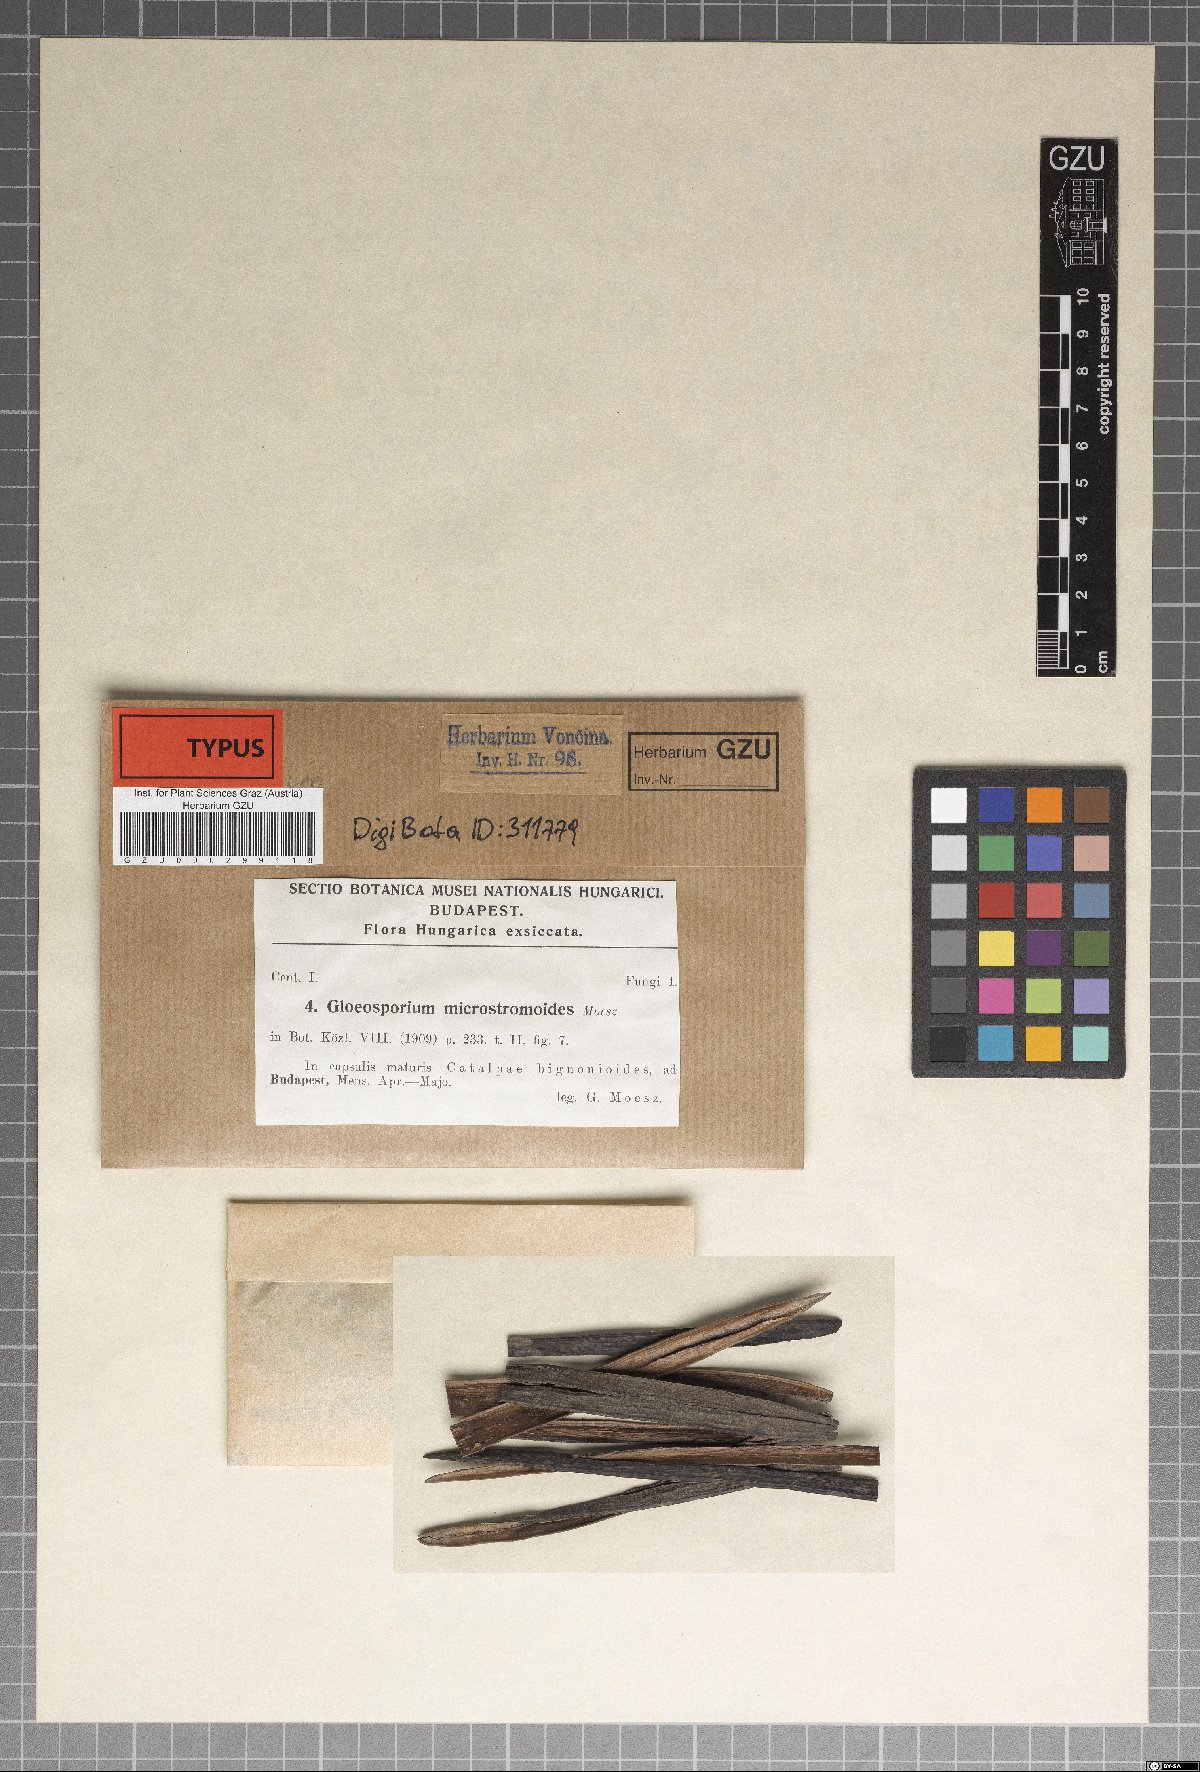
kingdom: Fungi
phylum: Ascomycota
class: Dothideomycetes
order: Dothideales
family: Saccotheciaceae
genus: Kabatiella
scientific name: Kabatiella microstromoides
